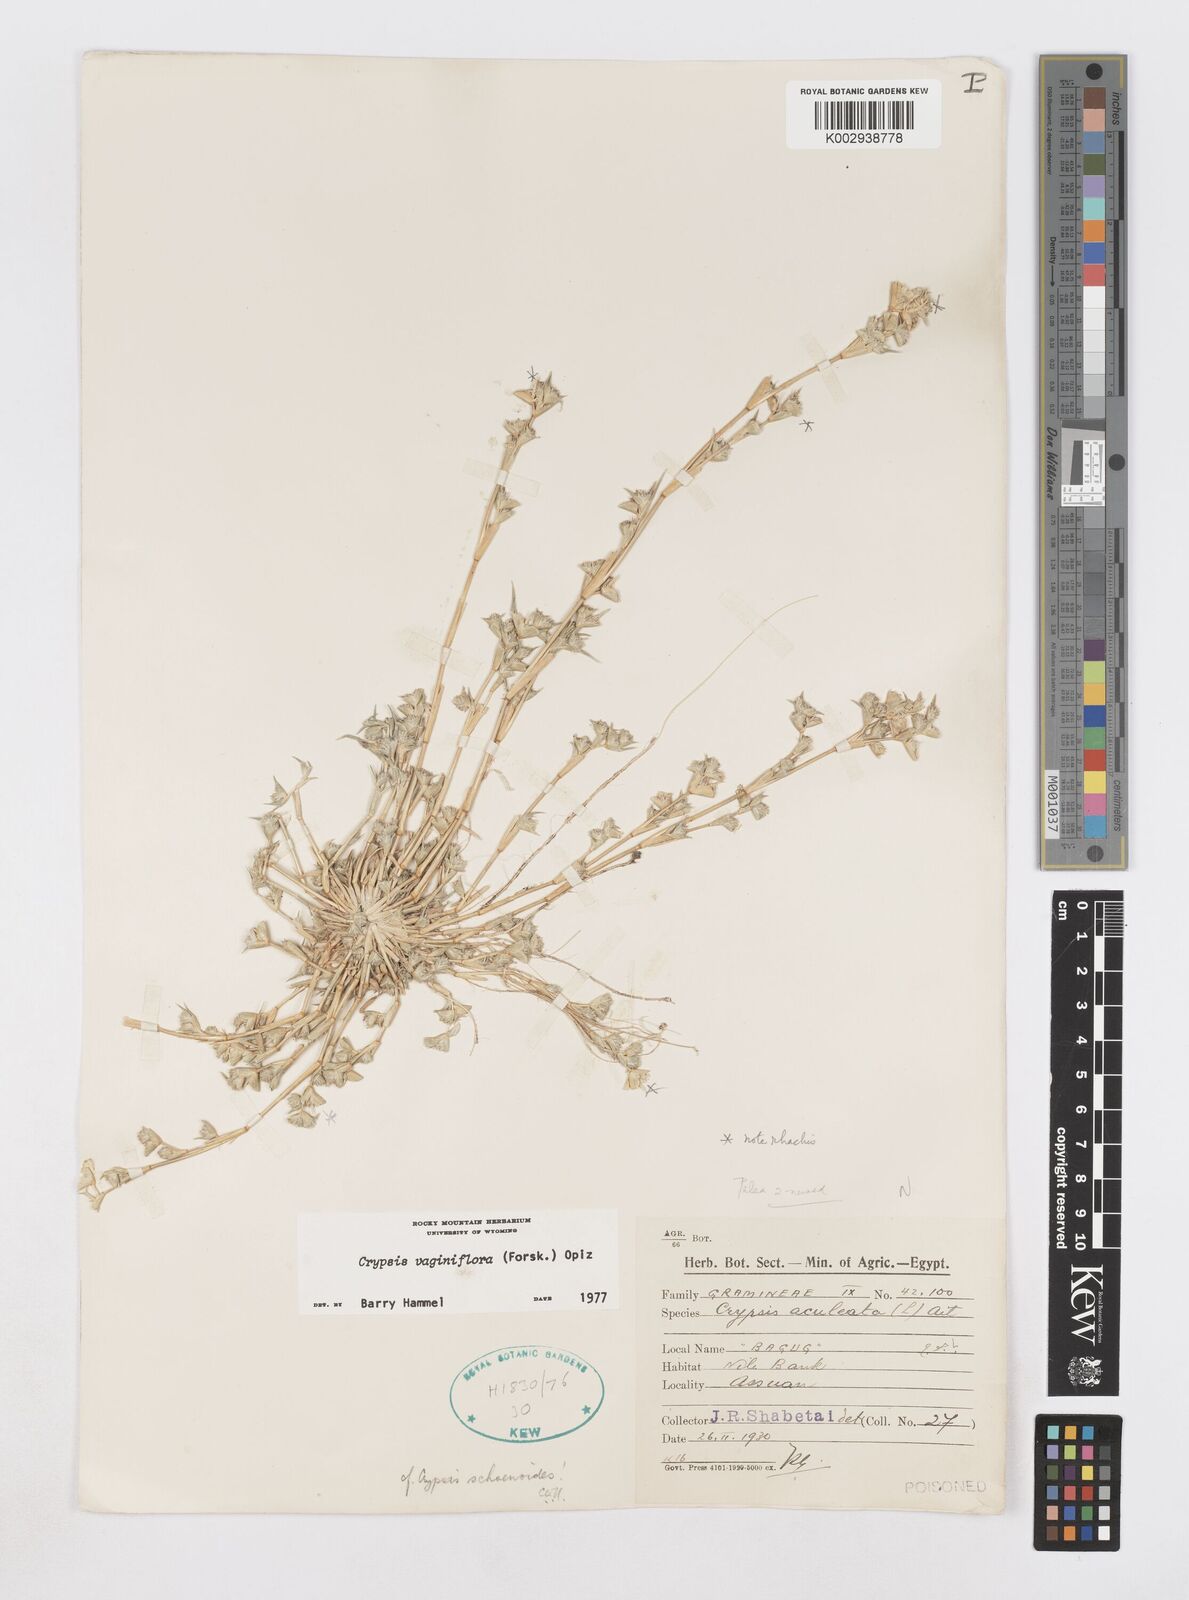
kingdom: Plantae
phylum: Tracheophyta
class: Liliopsida
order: Poales
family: Poaceae
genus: Sporobolus
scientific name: Sporobolus niliacus
